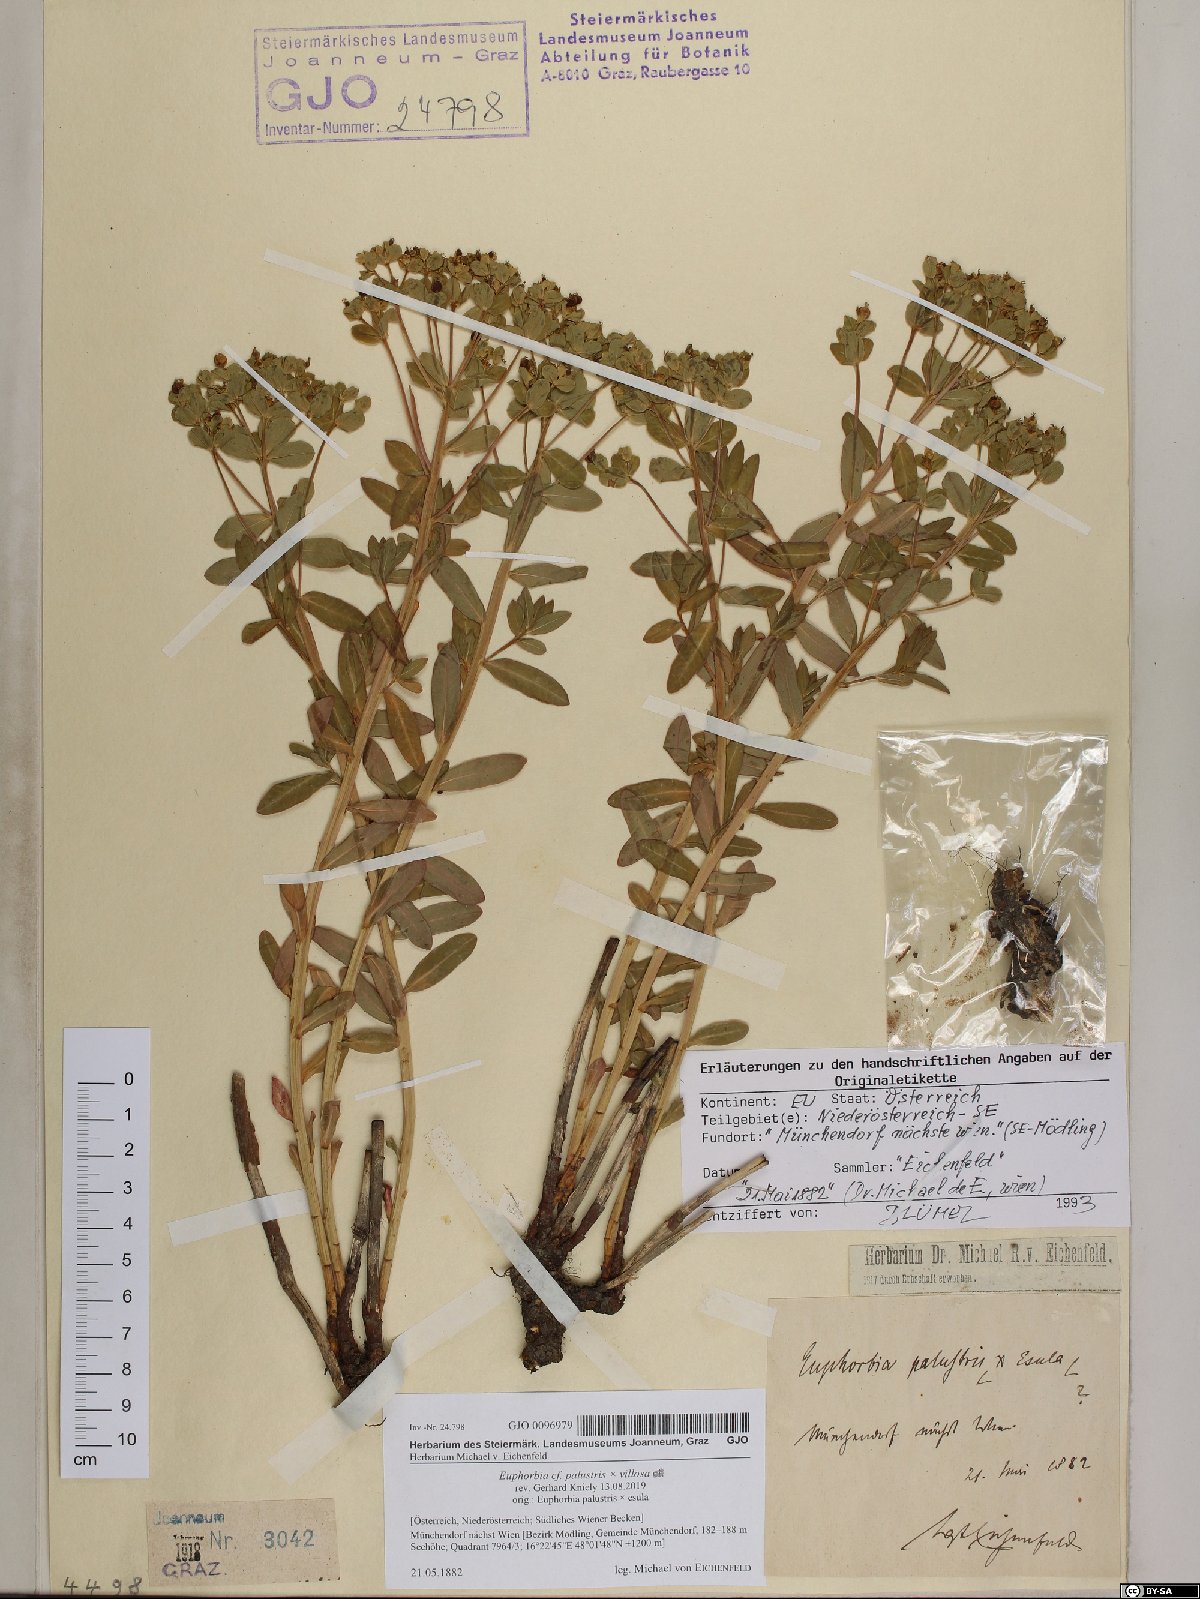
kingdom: Plantae
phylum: Tracheophyta
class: Magnoliopsida
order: Malpighiales
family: Euphorbiaceae
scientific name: Euphorbiaceae
